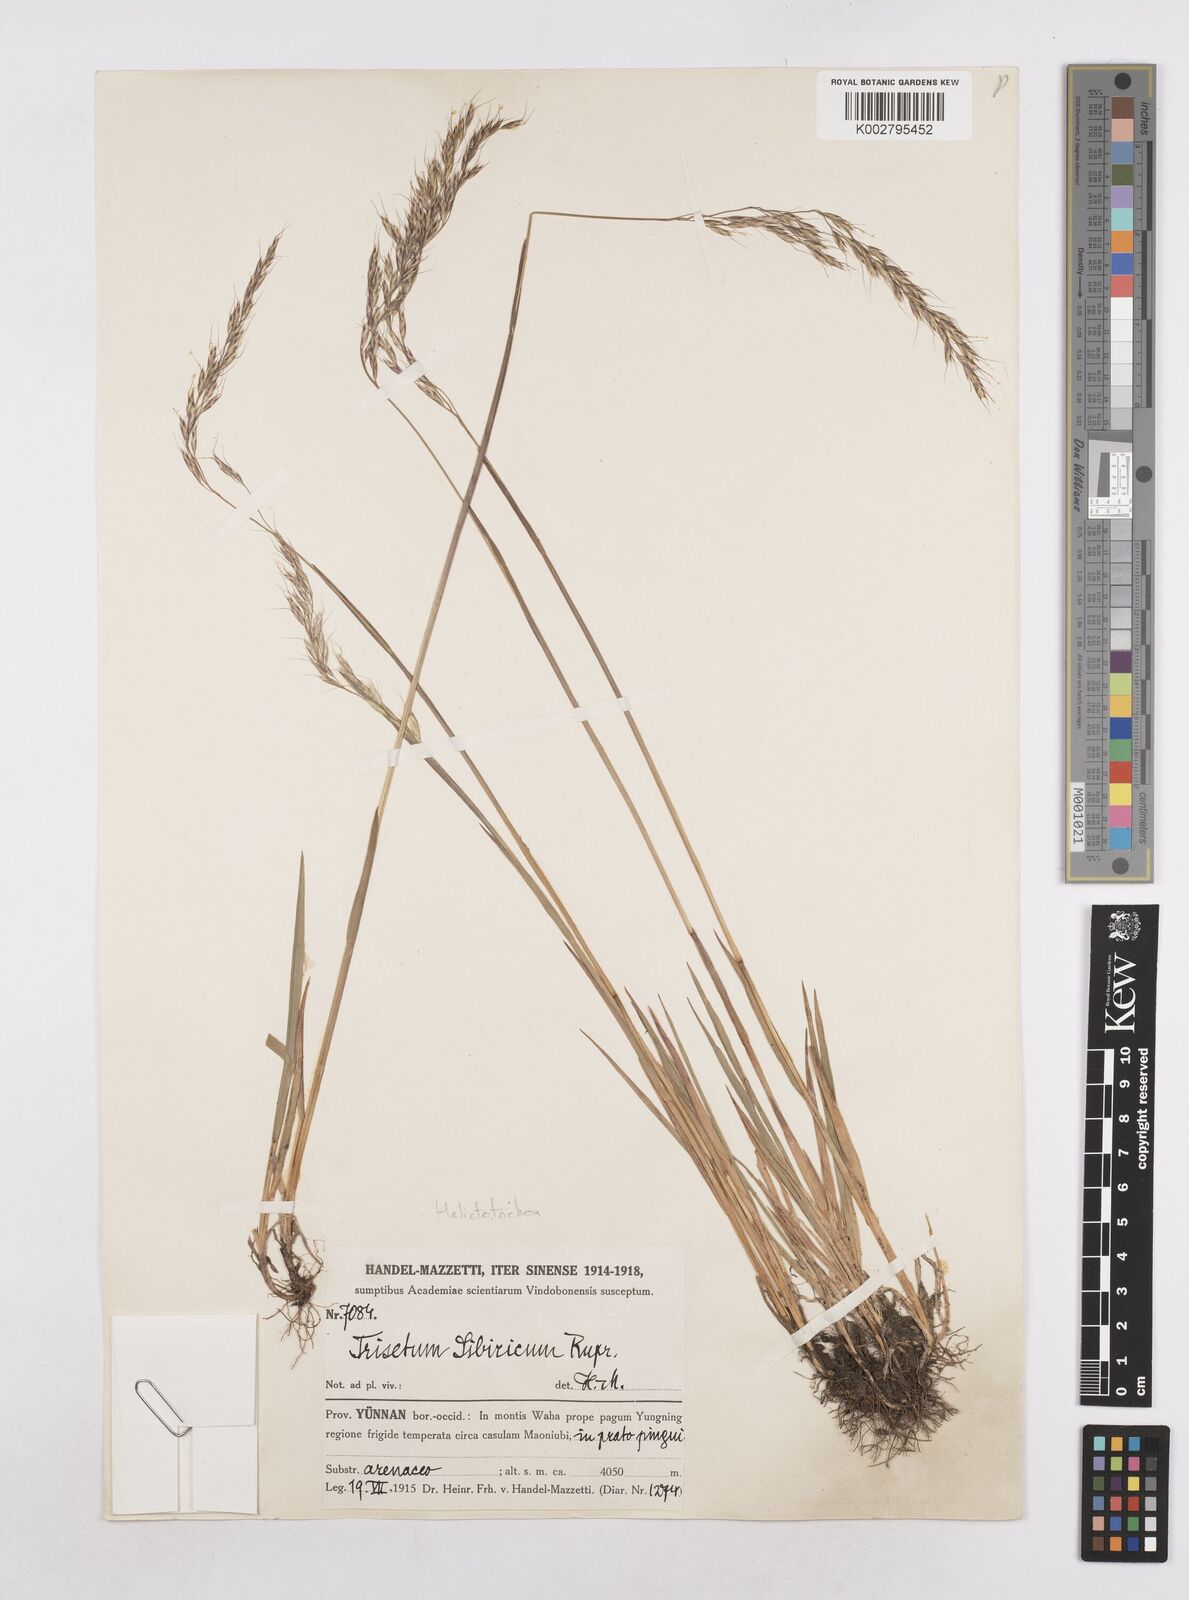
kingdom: Plantae
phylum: Tracheophyta
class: Liliopsida
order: Poales
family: Poaceae
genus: Helictotrichon
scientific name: Helictotrichon
